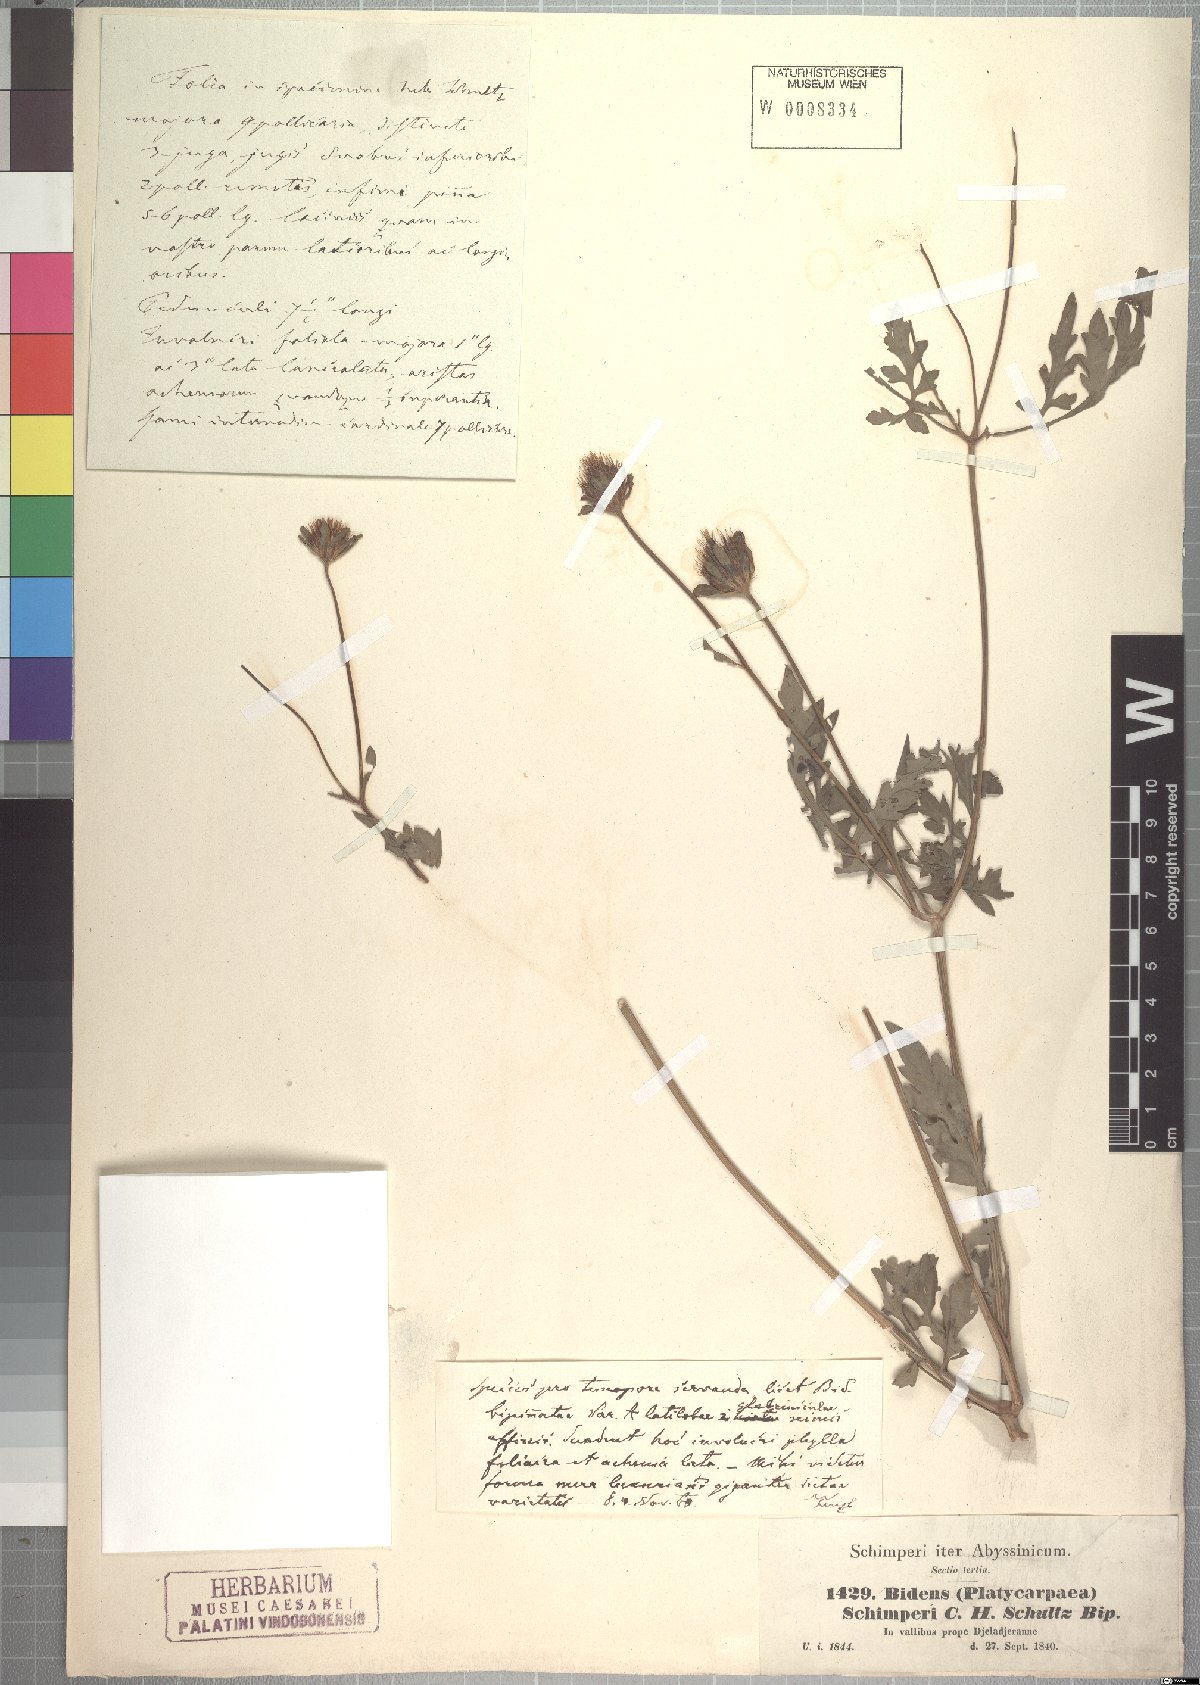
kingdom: Plantae
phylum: Tracheophyta
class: Magnoliopsida
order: Asterales
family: Asteraceae
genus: Bidens
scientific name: Bidens schimperi
